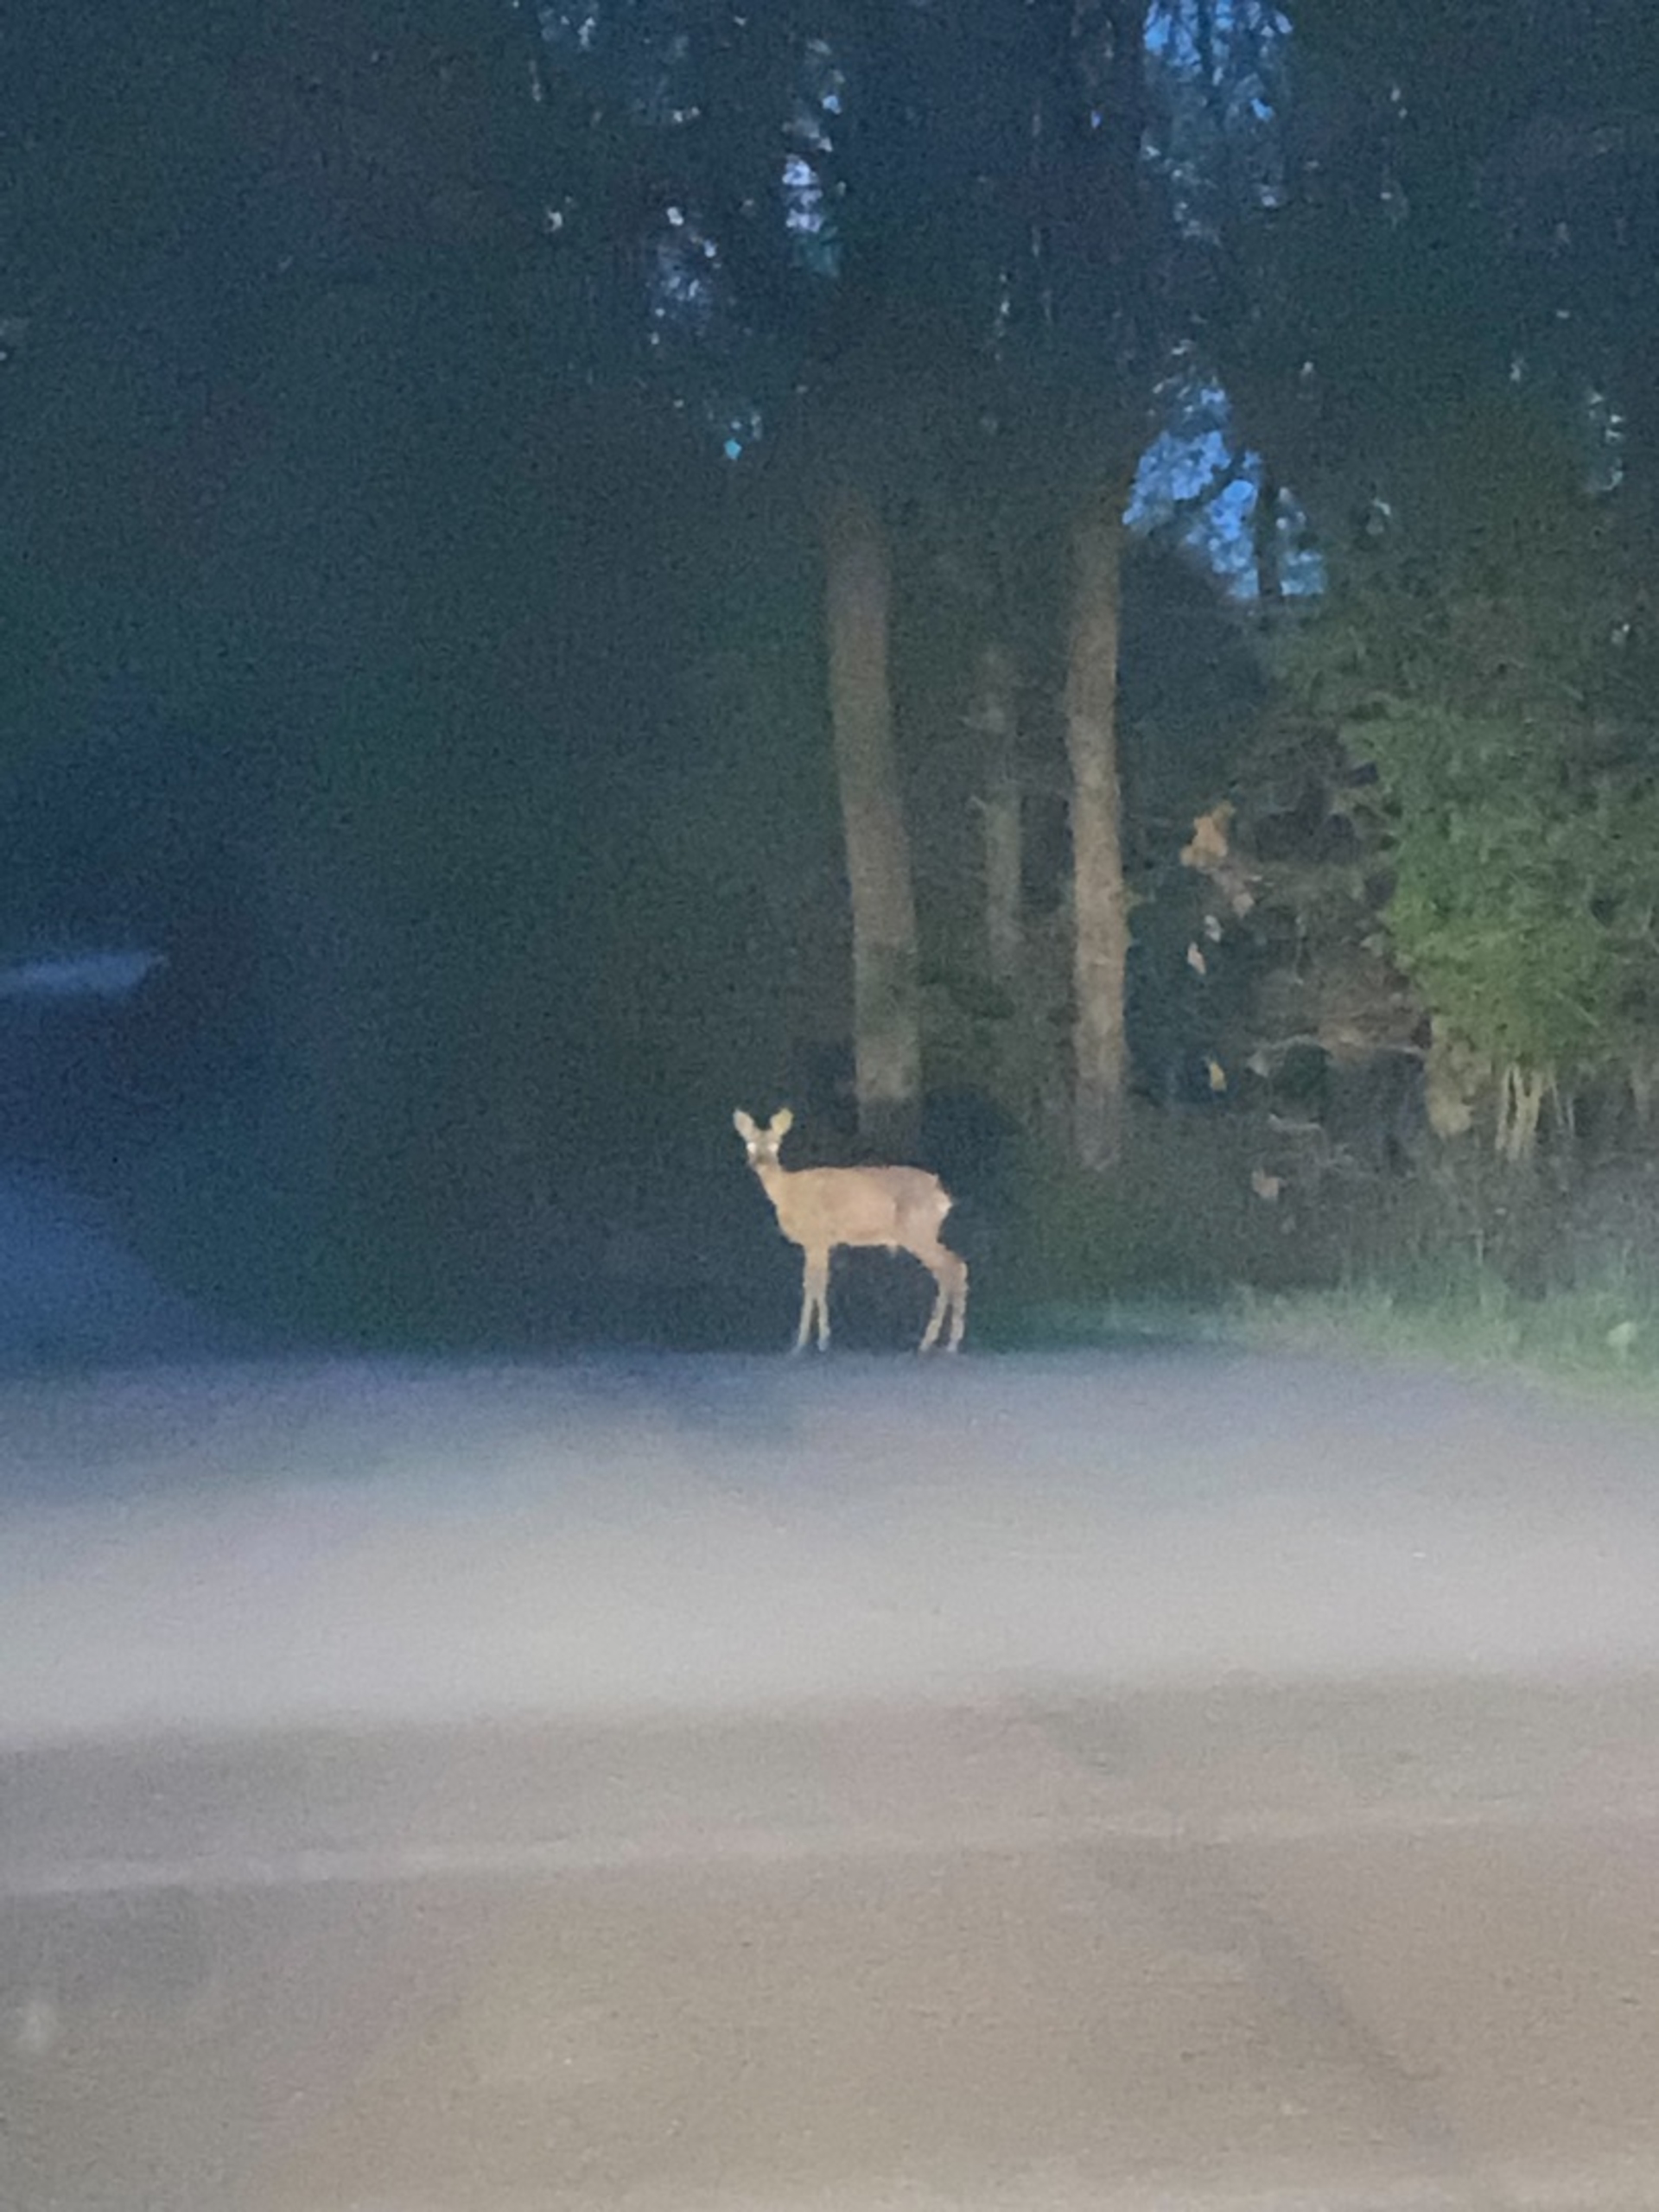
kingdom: Animalia
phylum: Chordata
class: Mammalia
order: Artiodactyla
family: Cervidae
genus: Capreolus
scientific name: Capreolus capreolus
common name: Rådyr
